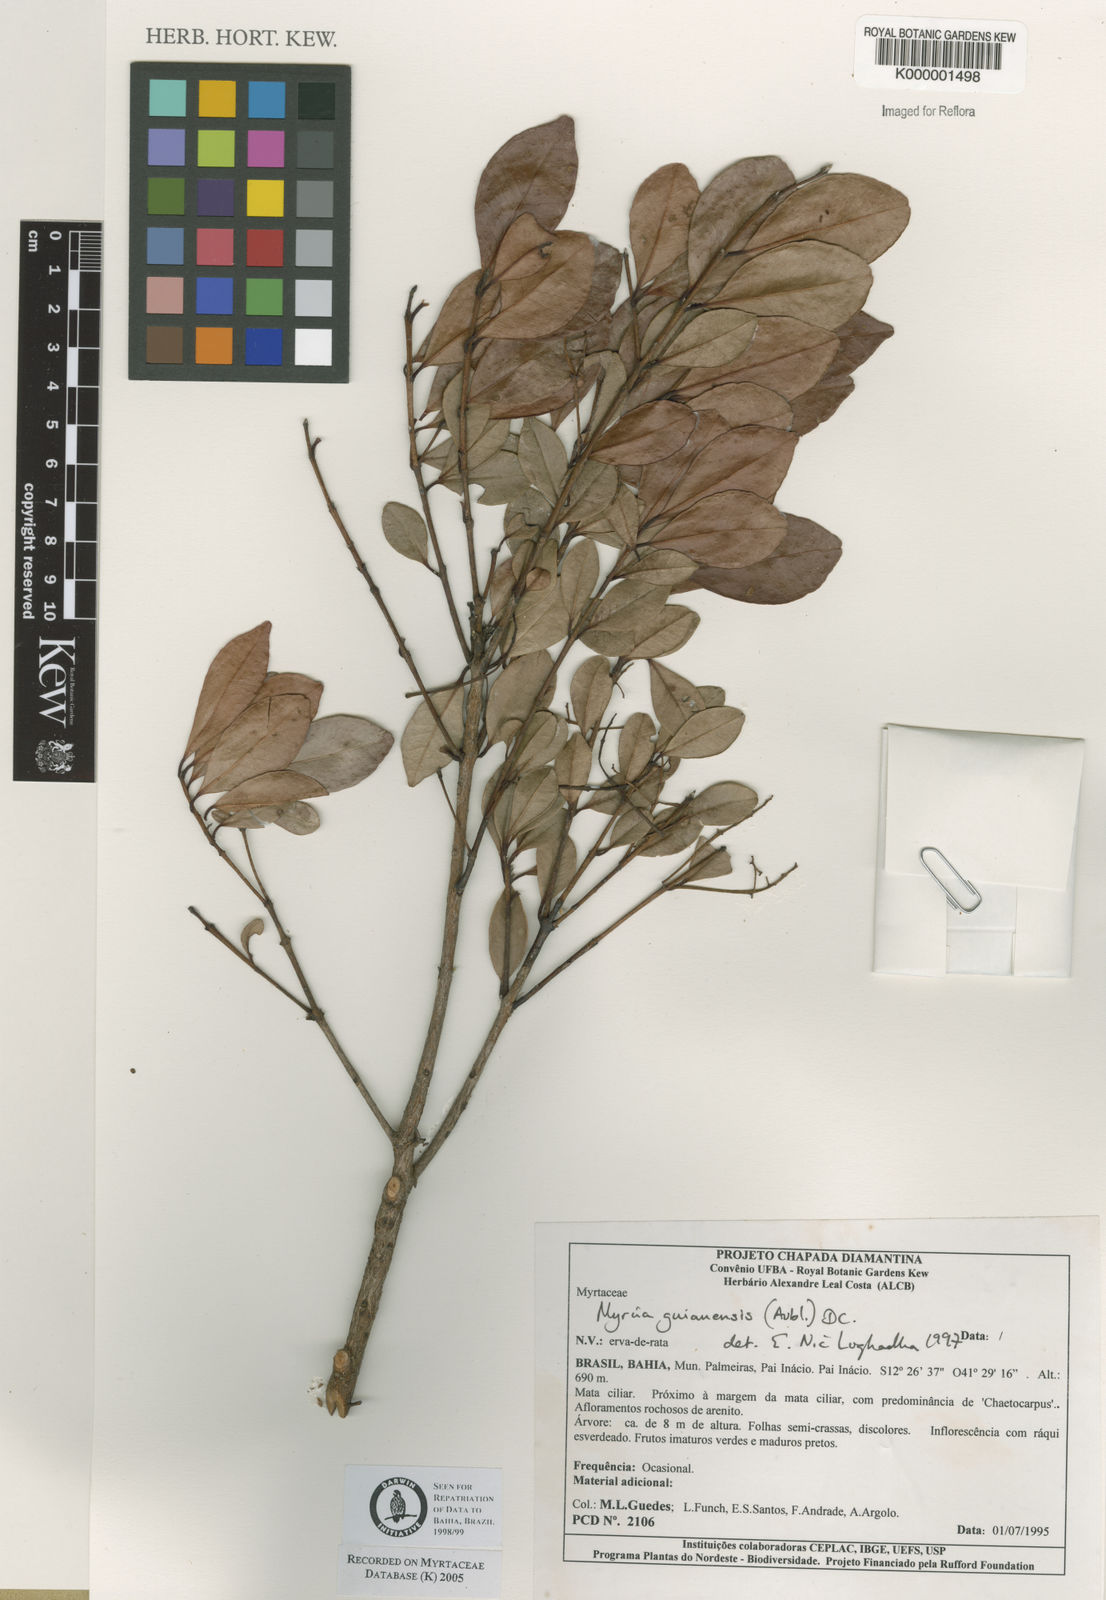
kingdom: Plantae
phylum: Tracheophyta
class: Magnoliopsida
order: Myrtales
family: Myrtaceae
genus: Myrcia
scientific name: Myrcia guianensis
